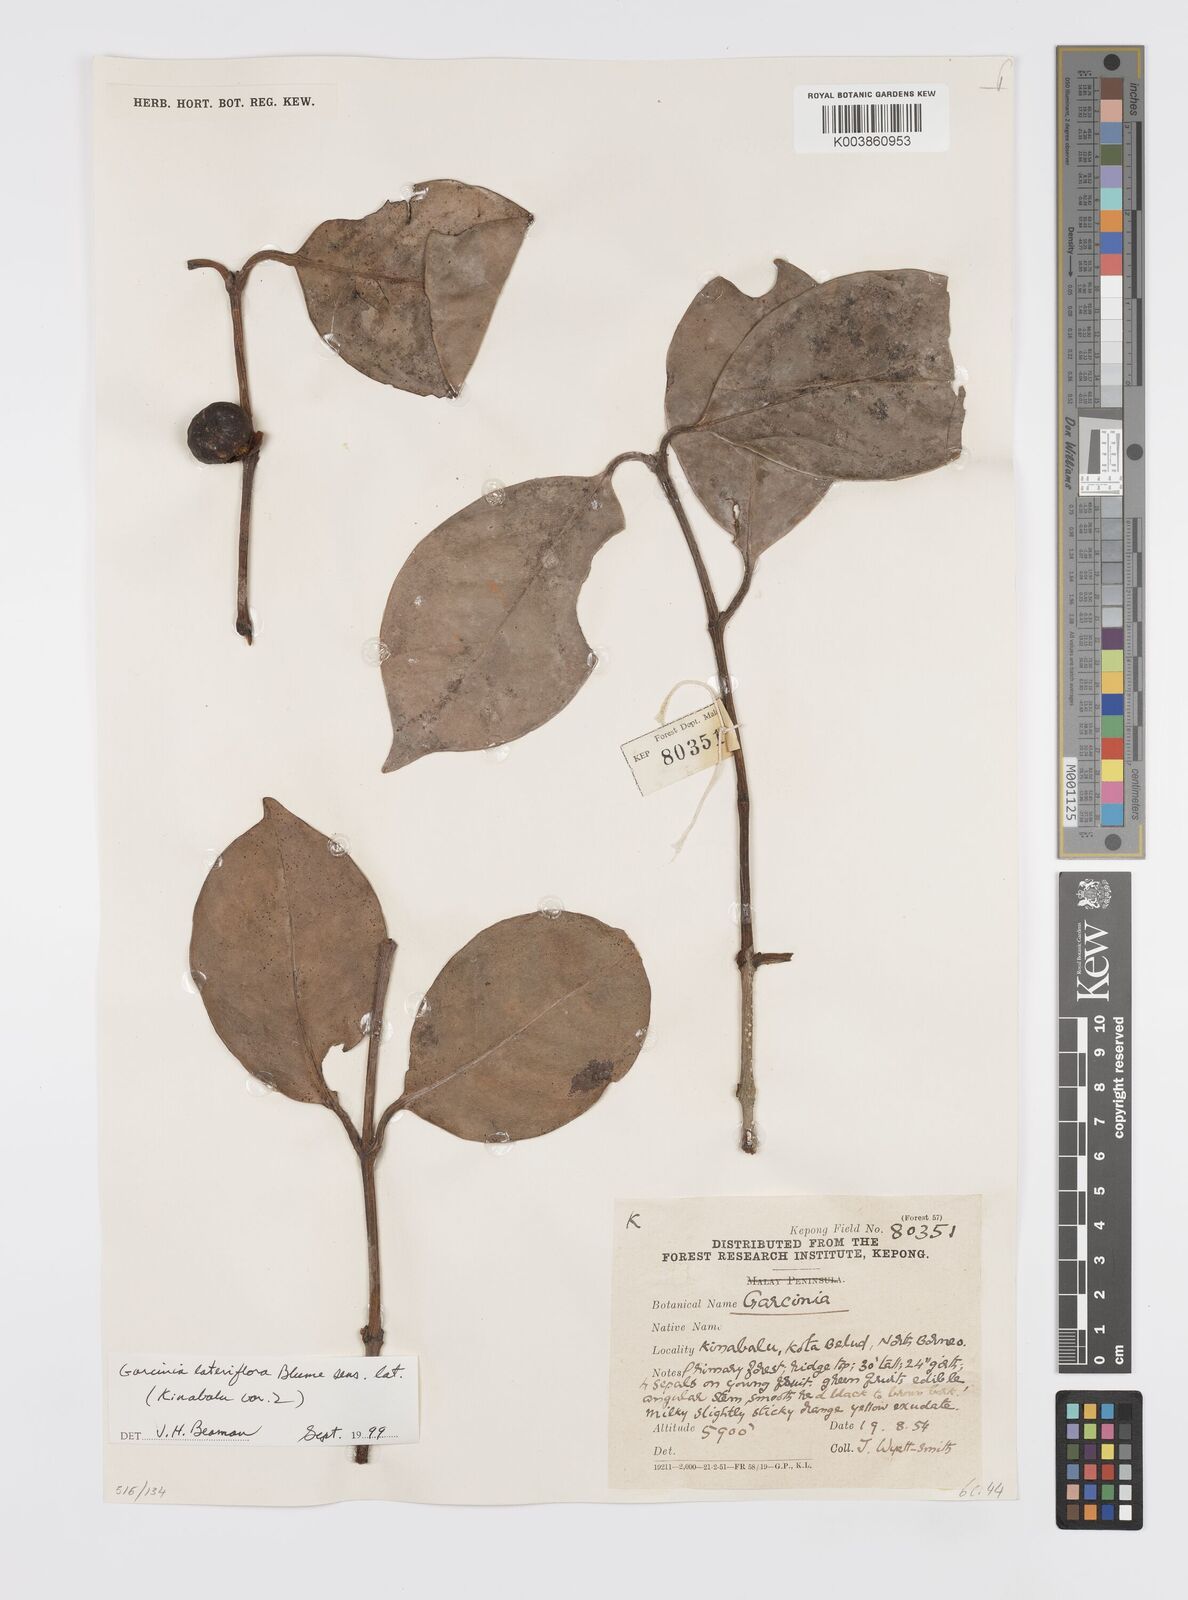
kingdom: Plantae
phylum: Tracheophyta
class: Magnoliopsida
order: Malpighiales
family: Clusiaceae
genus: Garcinia
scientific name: Garcinia lateriflora
